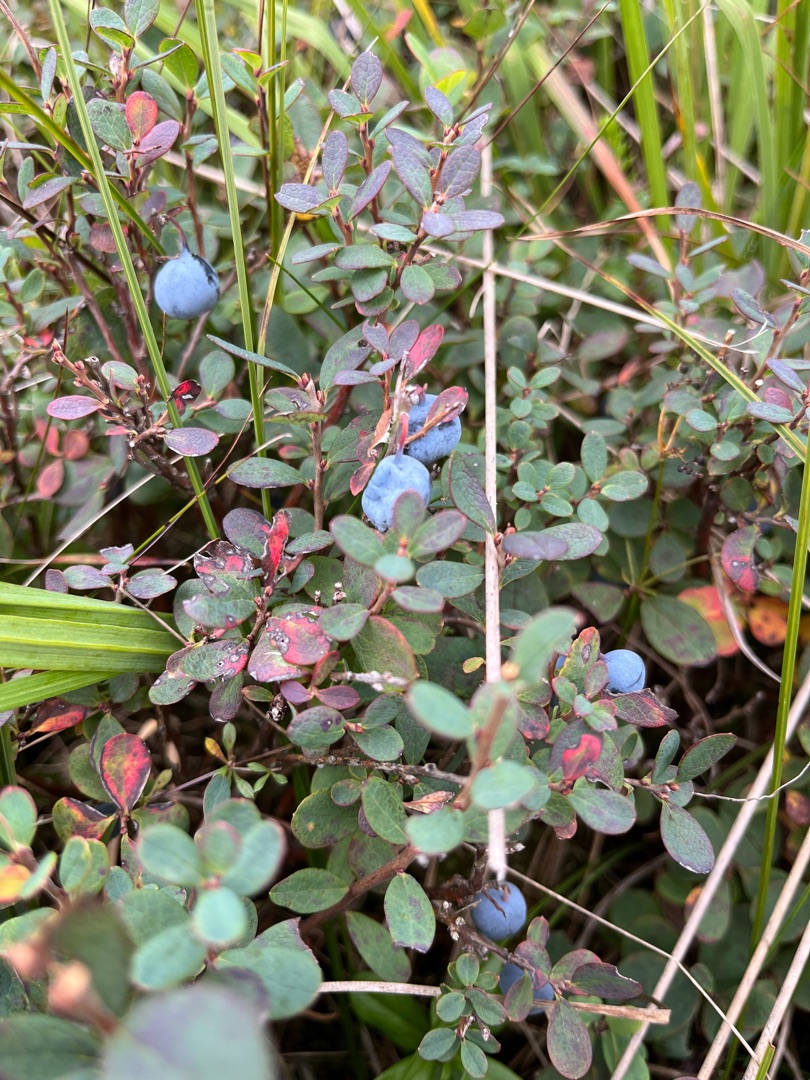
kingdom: Plantae
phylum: Tracheophyta
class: Magnoliopsida
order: Ericales
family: Ericaceae
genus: Vaccinium
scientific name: Vaccinium uliginosum
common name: Mose-bølle
